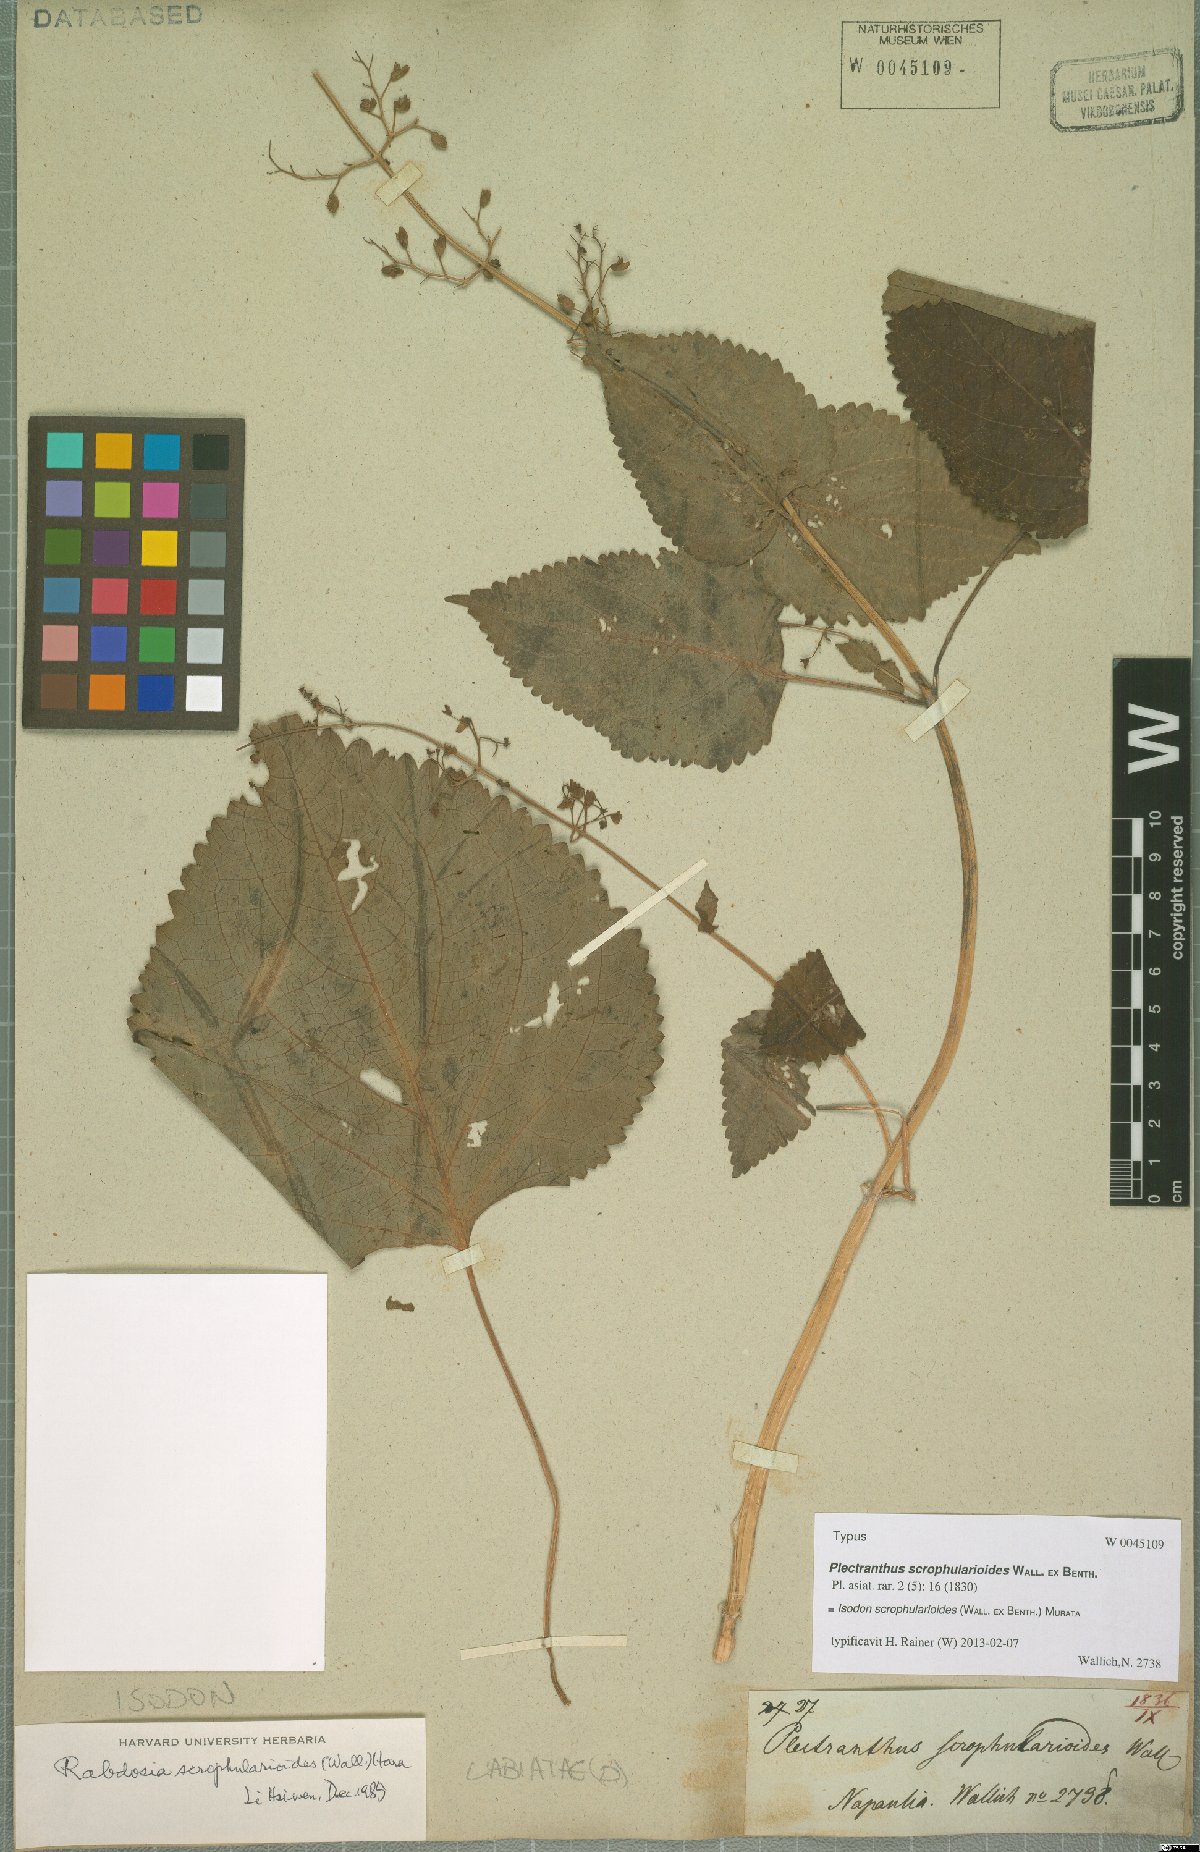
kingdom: Plantae
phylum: Tracheophyta
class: Magnoliopsida
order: Lamiales
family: Lamiaceae
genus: Isodon
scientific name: Isodon scrophularioides
